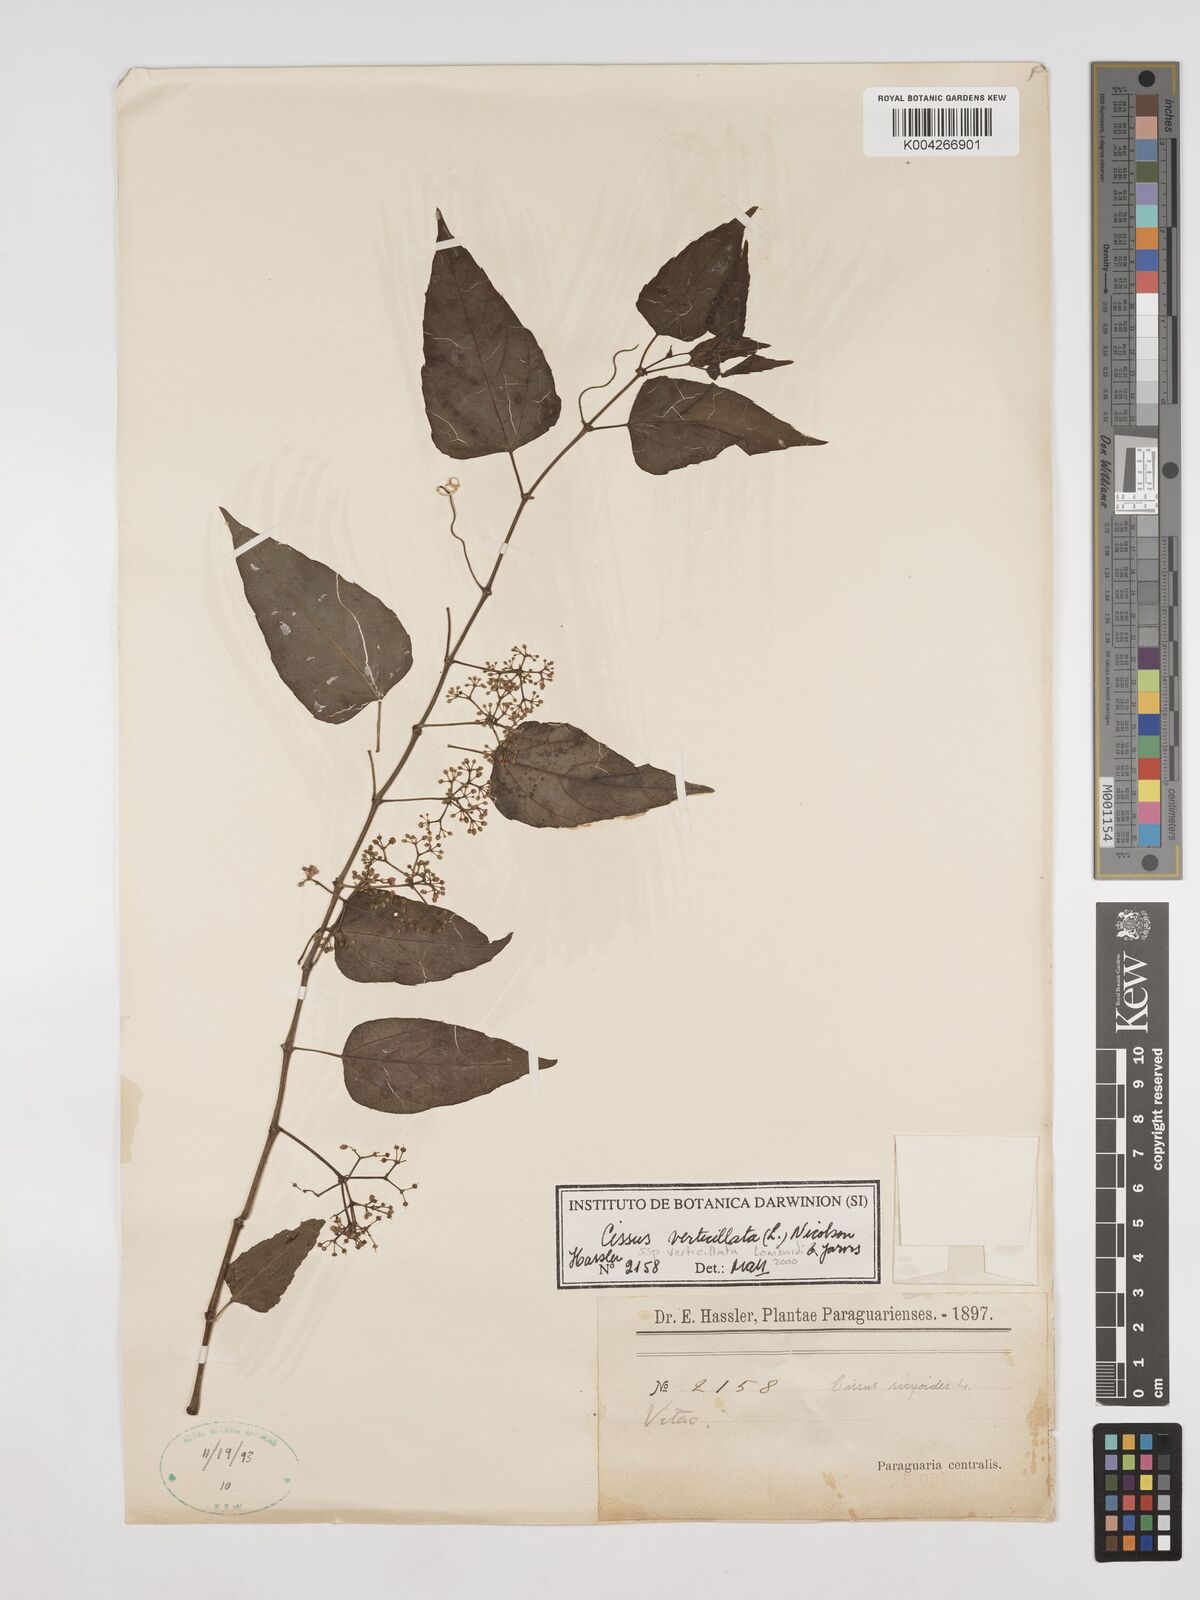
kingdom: Plantae
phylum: Tracheophyta
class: Magnoliopsida
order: Vitales
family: Vitaceae
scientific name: Vitaceae
